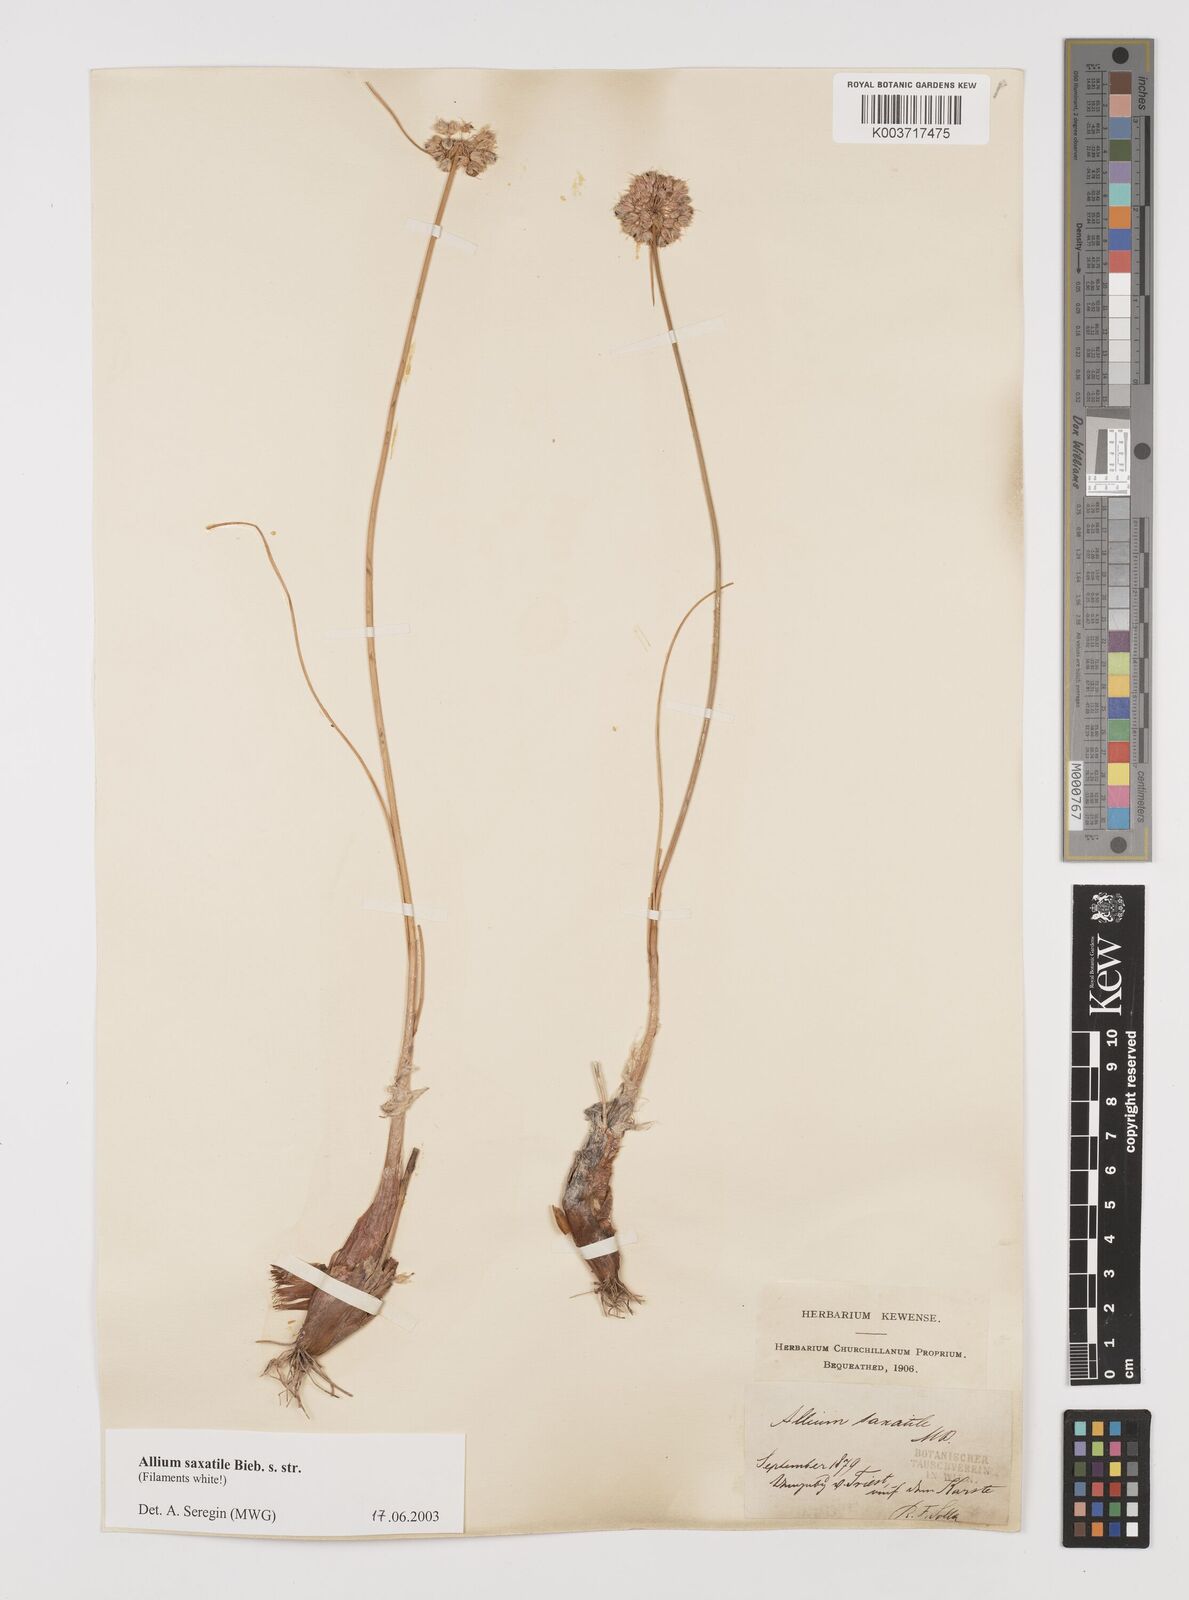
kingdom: Plantae
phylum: Tracheophyta
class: Liliopsida
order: Asparagales
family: Amaryllidaceae
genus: Allium
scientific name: Allium saxatile
